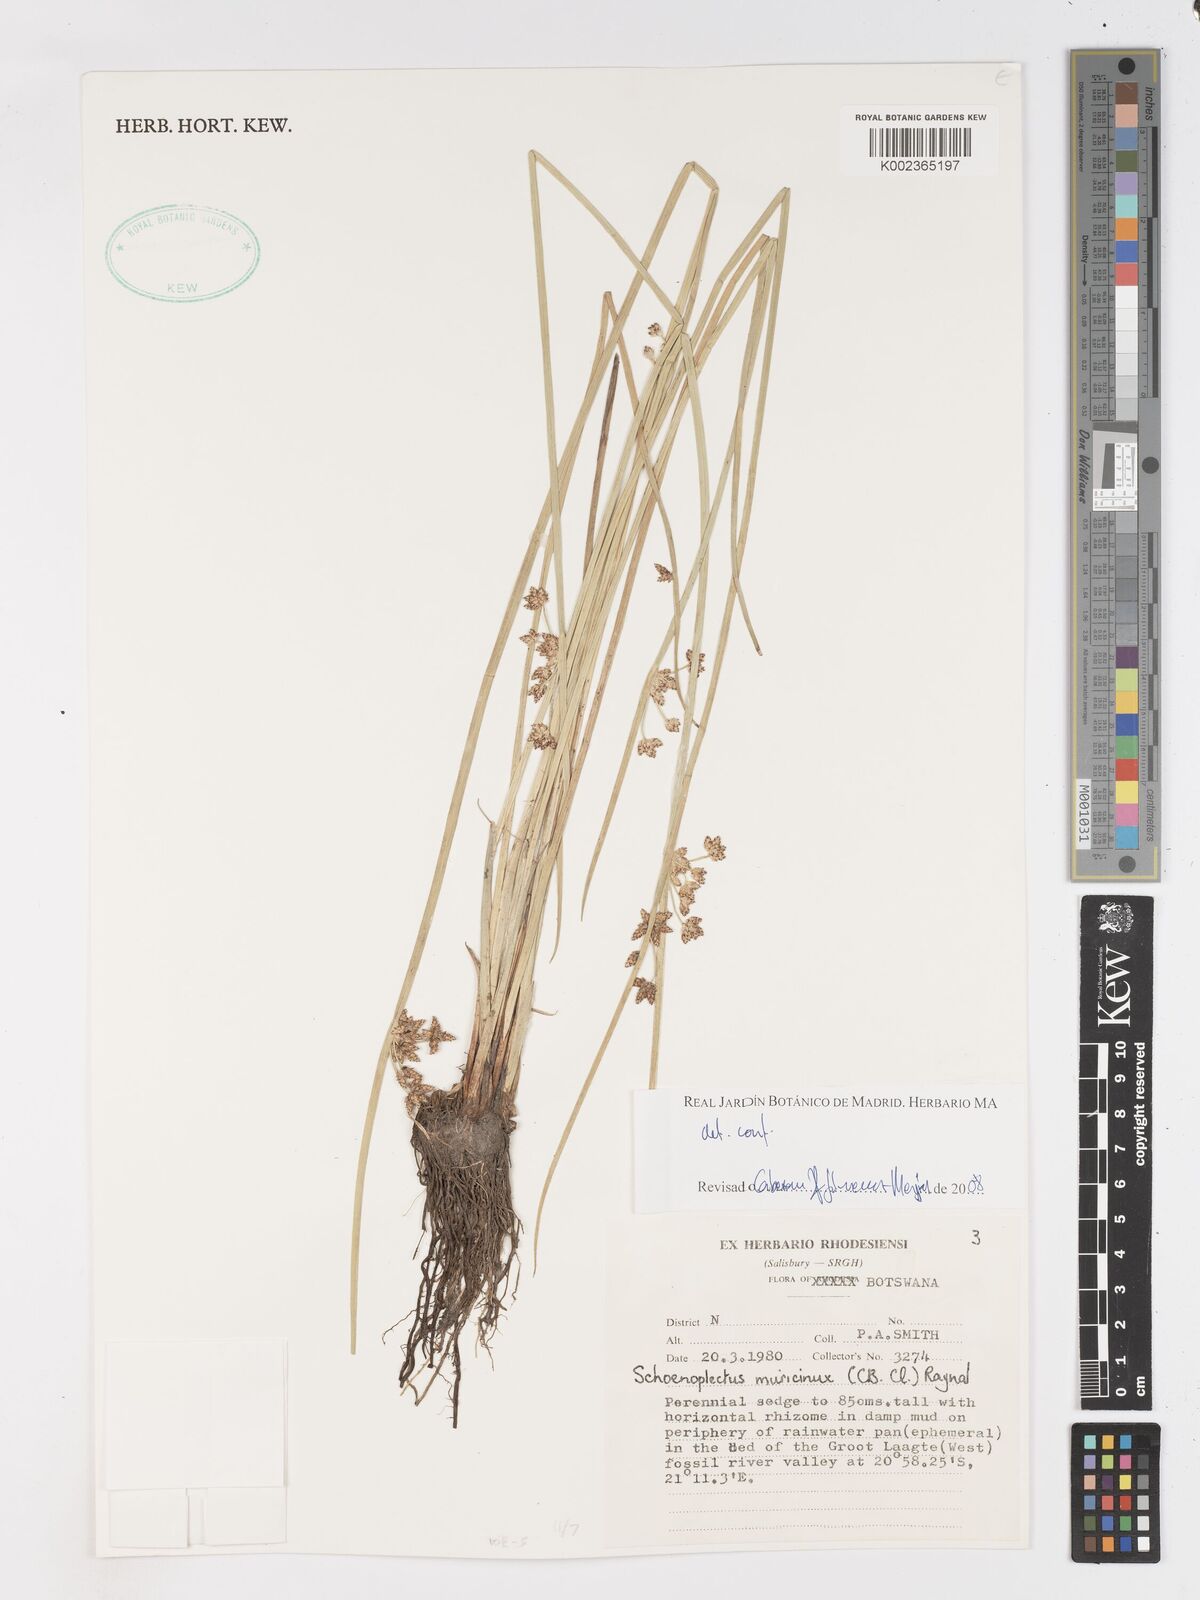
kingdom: Plantae
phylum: Tracheophyta
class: Liliopsida
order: Poales
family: Cyperaceae
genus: Schoenoplectiella
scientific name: Schoenoplectiella muricinux
